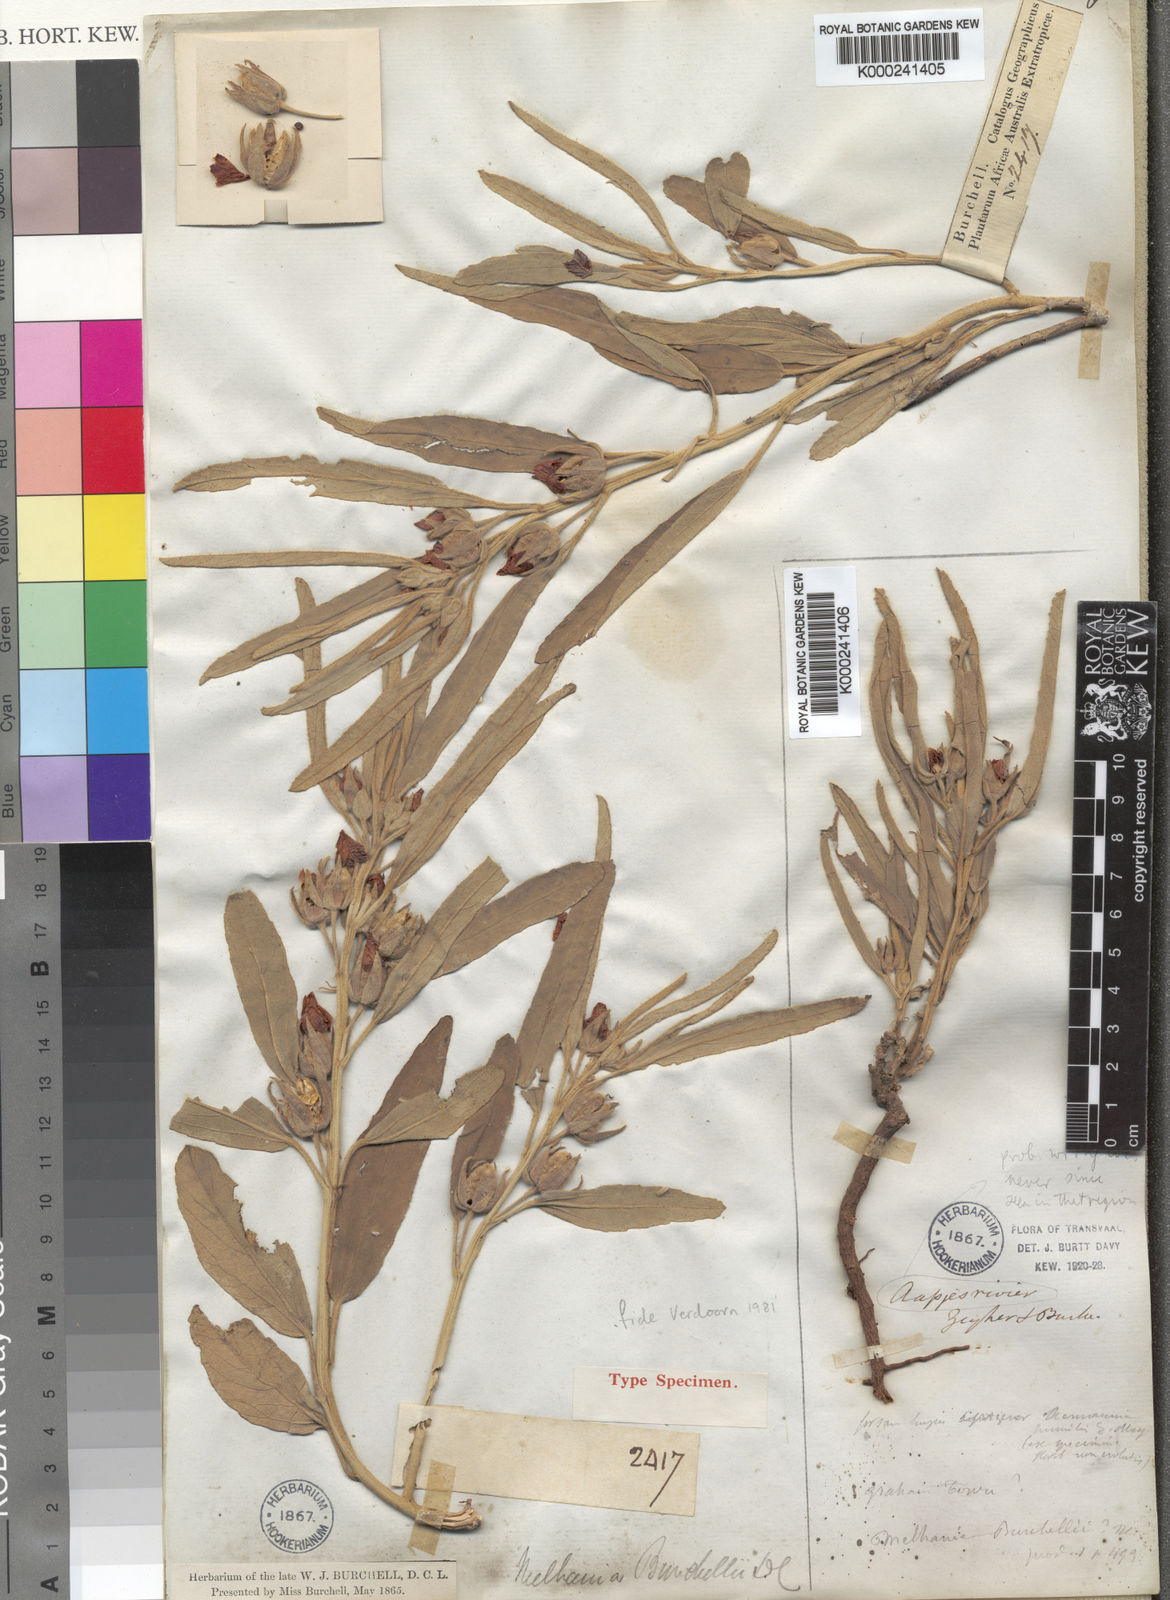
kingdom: Plantae
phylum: Tracheophyta
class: Magnoliopsida
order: Malvales
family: Malvaceae
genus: Melhania
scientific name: Melhania burchellii
